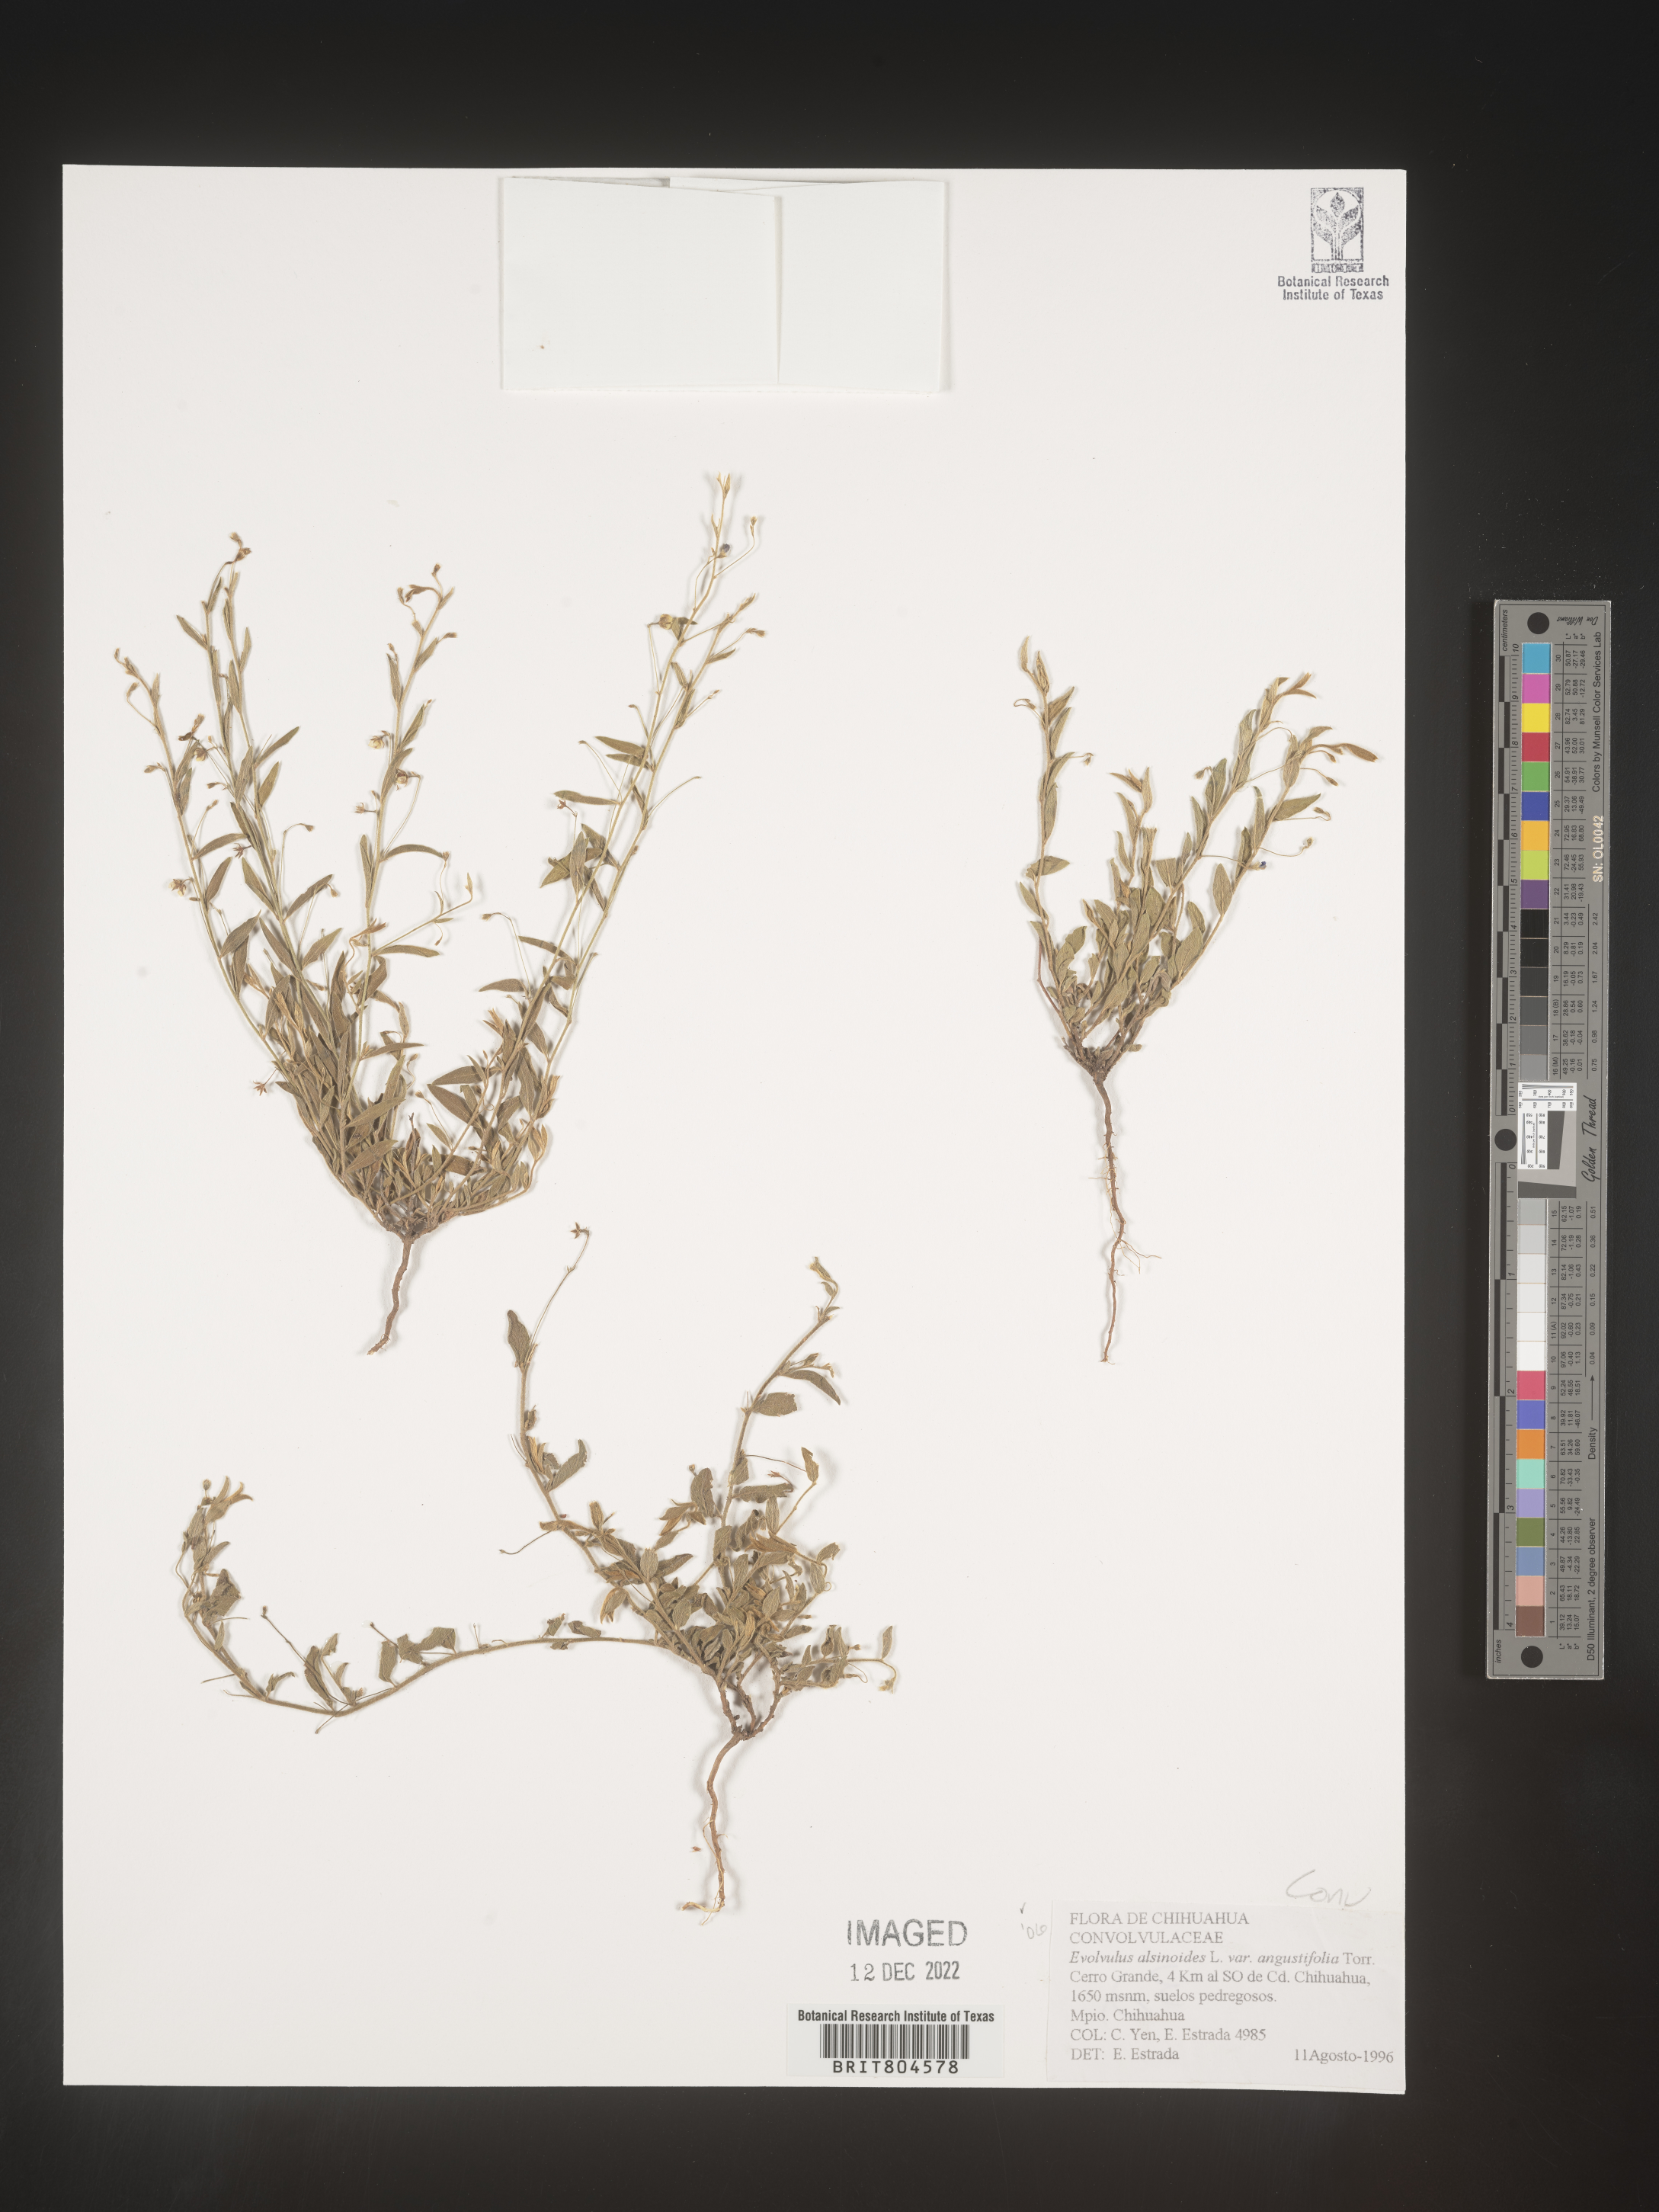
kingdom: Plantae
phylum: Tracheophyta
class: Magnoliopsida
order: Solanales
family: Convolvulaceae
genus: Evolvulus
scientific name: Evolvulus
